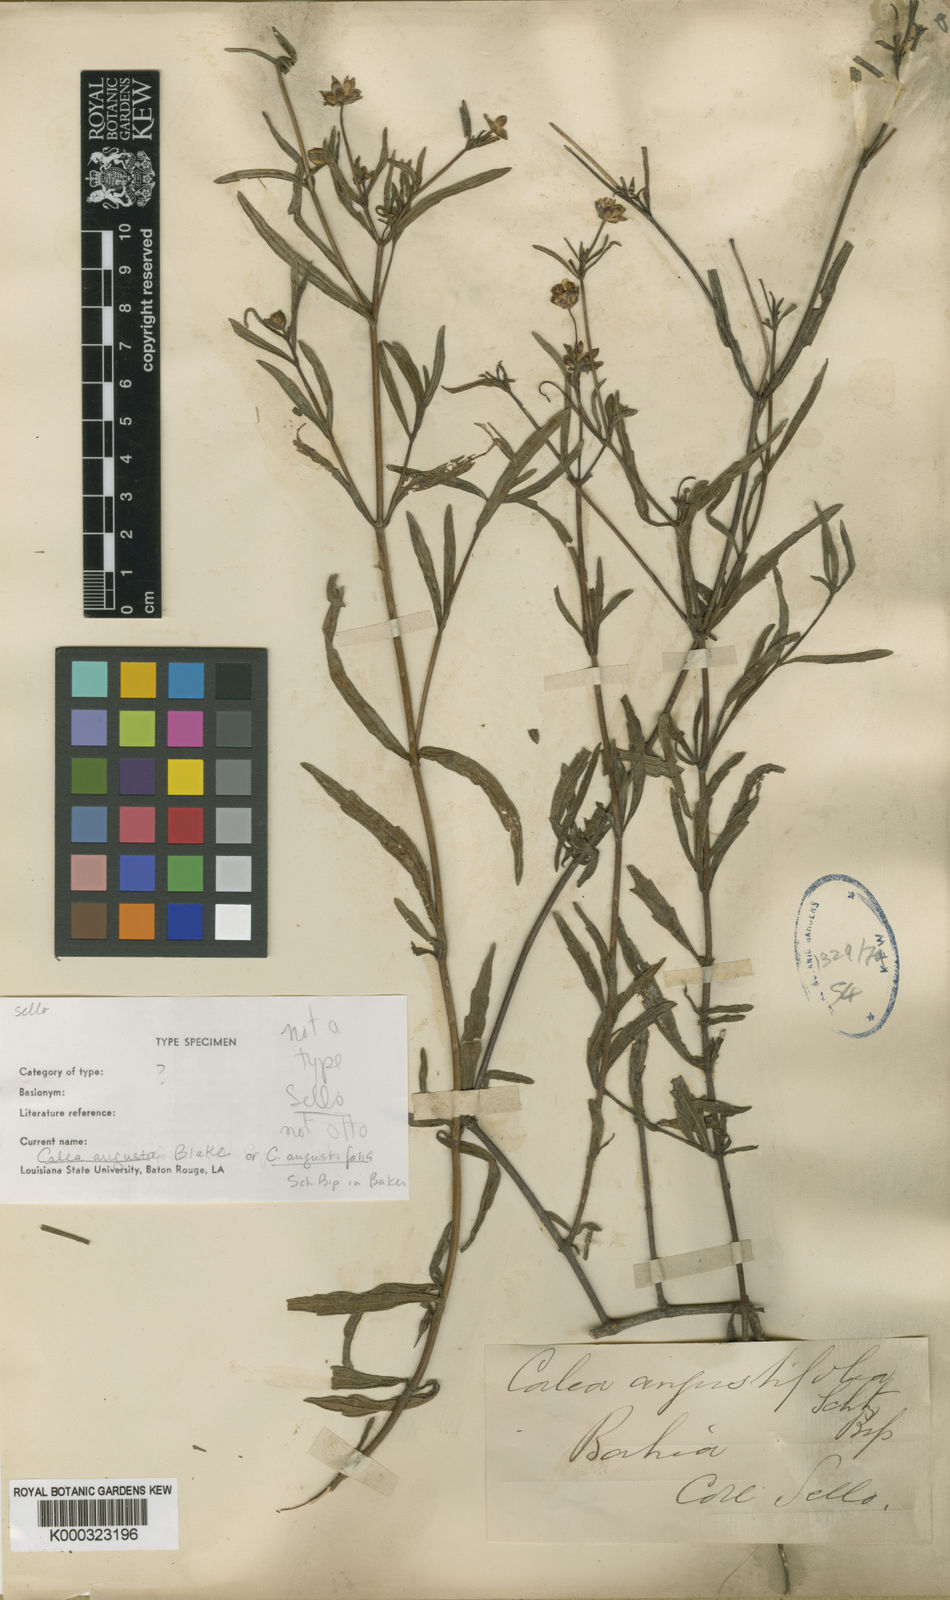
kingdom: Plantae
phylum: Tracheophyta
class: Magnoliopsida
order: Asterales
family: Asteraceae
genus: Calea
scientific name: Calea angusta
